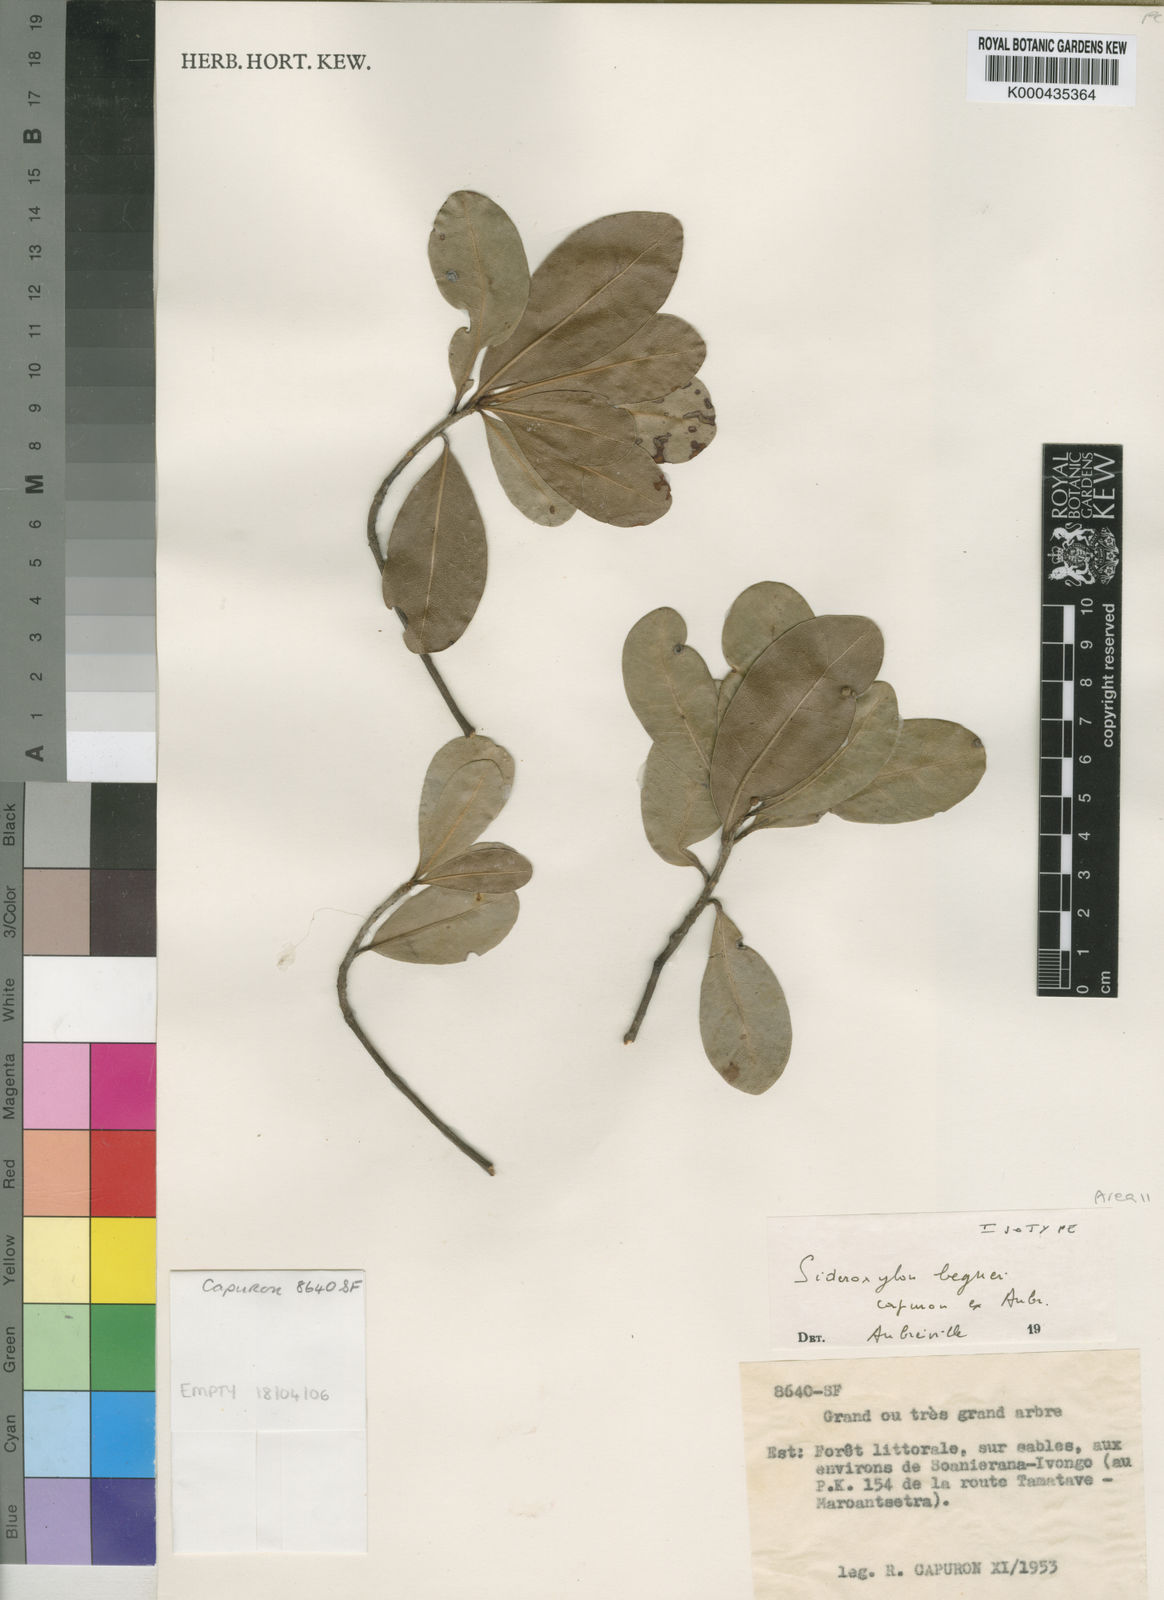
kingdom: Plantae
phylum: Tracheophyta
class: Magnoliopsida
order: Ericales
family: Sapotaceae
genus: Sideroxylon
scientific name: Sideroxylon
